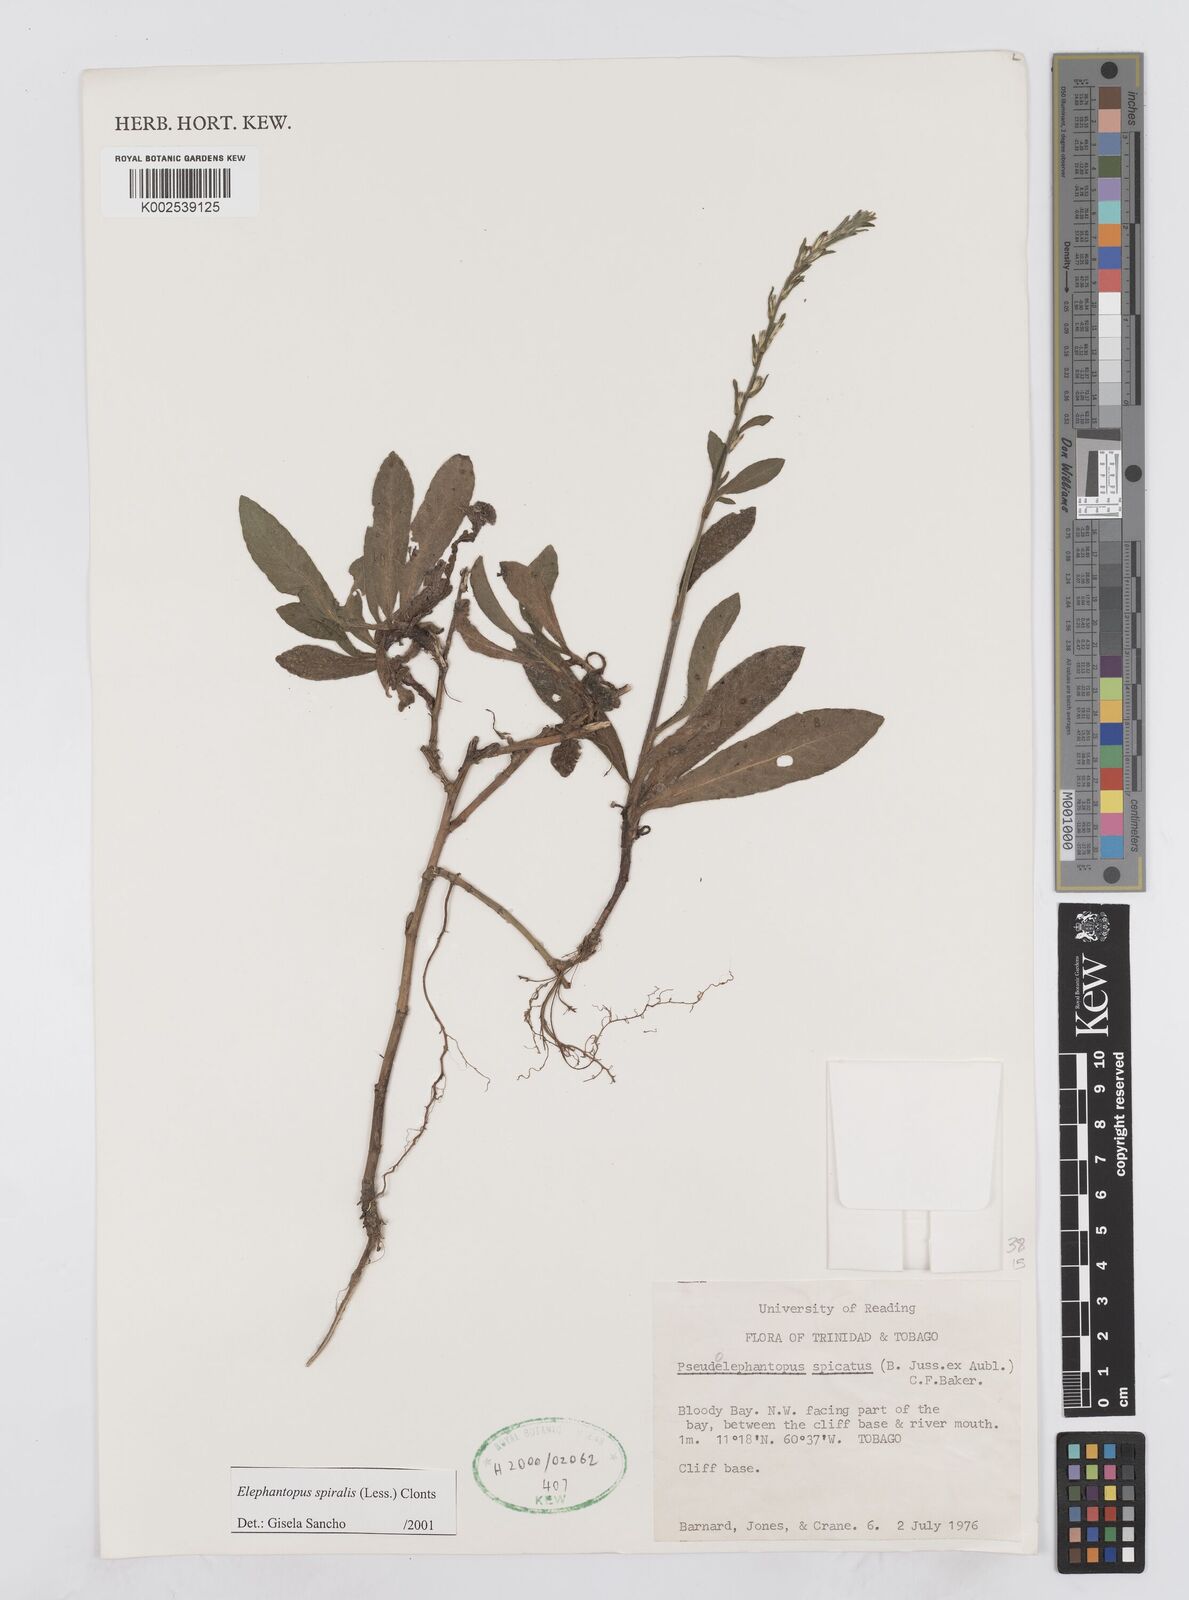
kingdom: Plantae
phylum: Tracheophyta
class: Magnoliopsida
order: Asterales
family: Asteraceae
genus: Pseudelephantopus
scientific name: Pseudelephantopus spiralis
